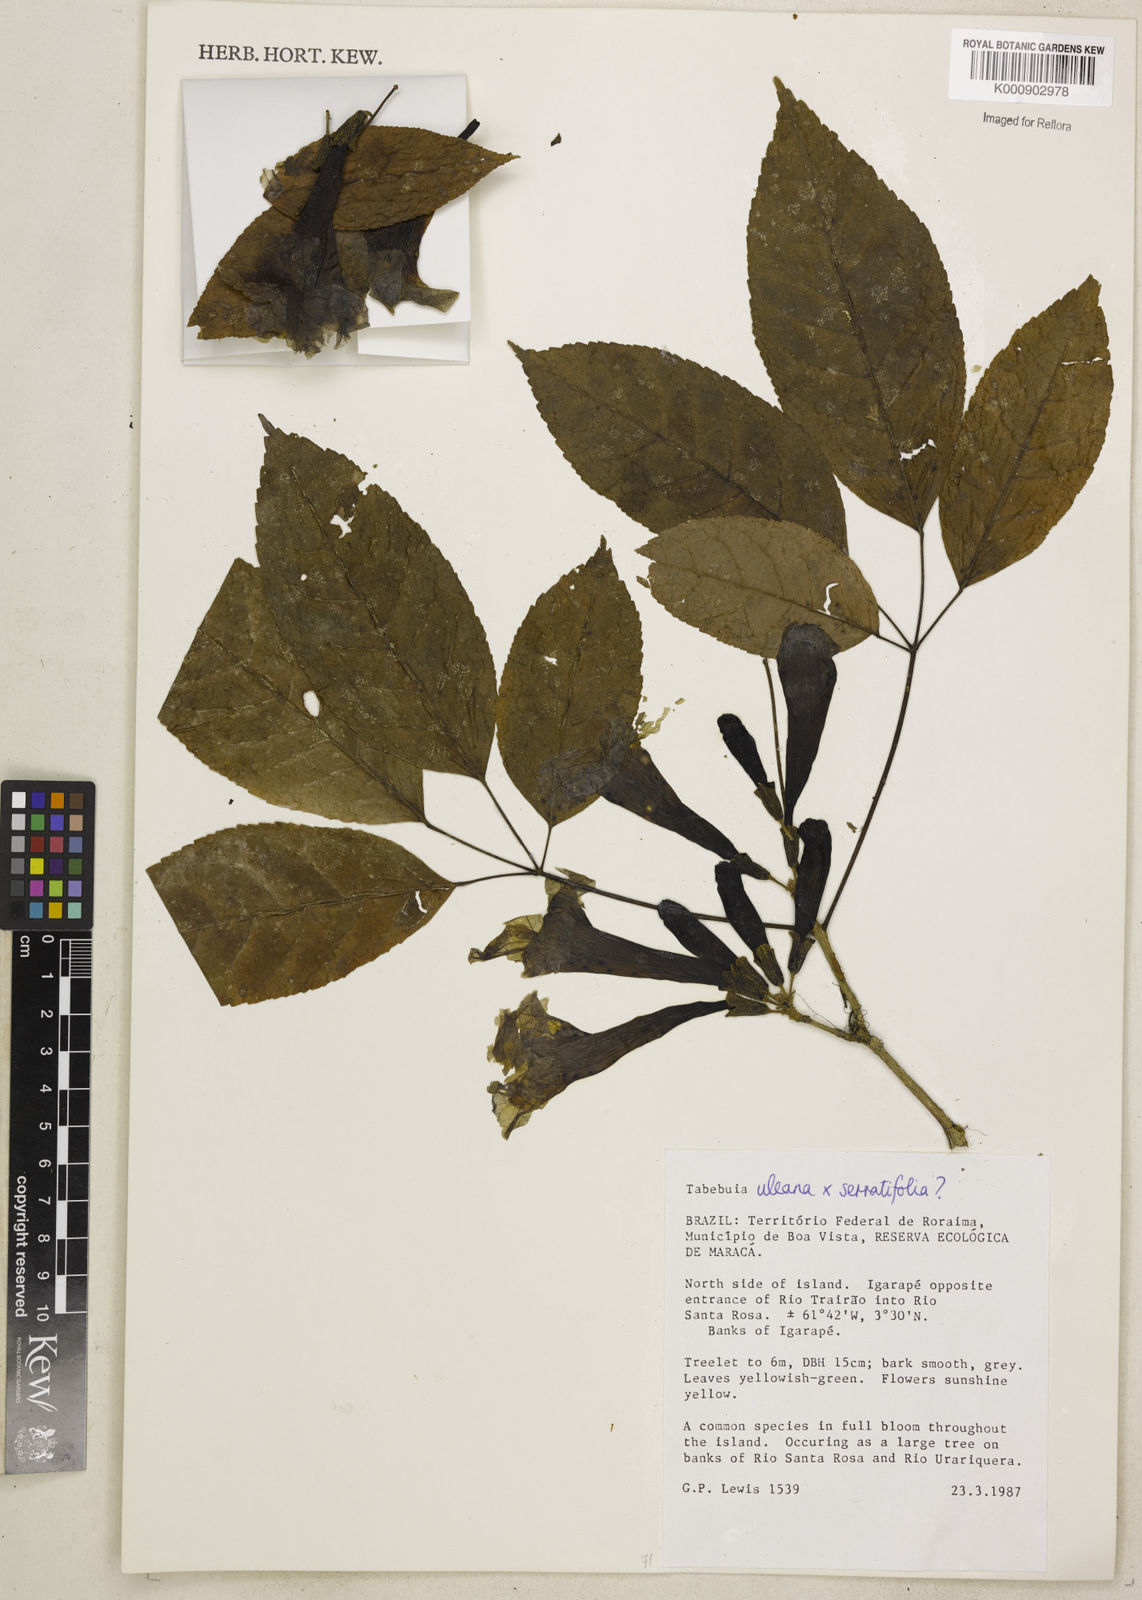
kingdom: Plantae
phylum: Tracheophyta
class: Magnoliopsida
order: Lamiales
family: Bignoniaceae
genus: Handroanthus
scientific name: Handroanthus uleanus
